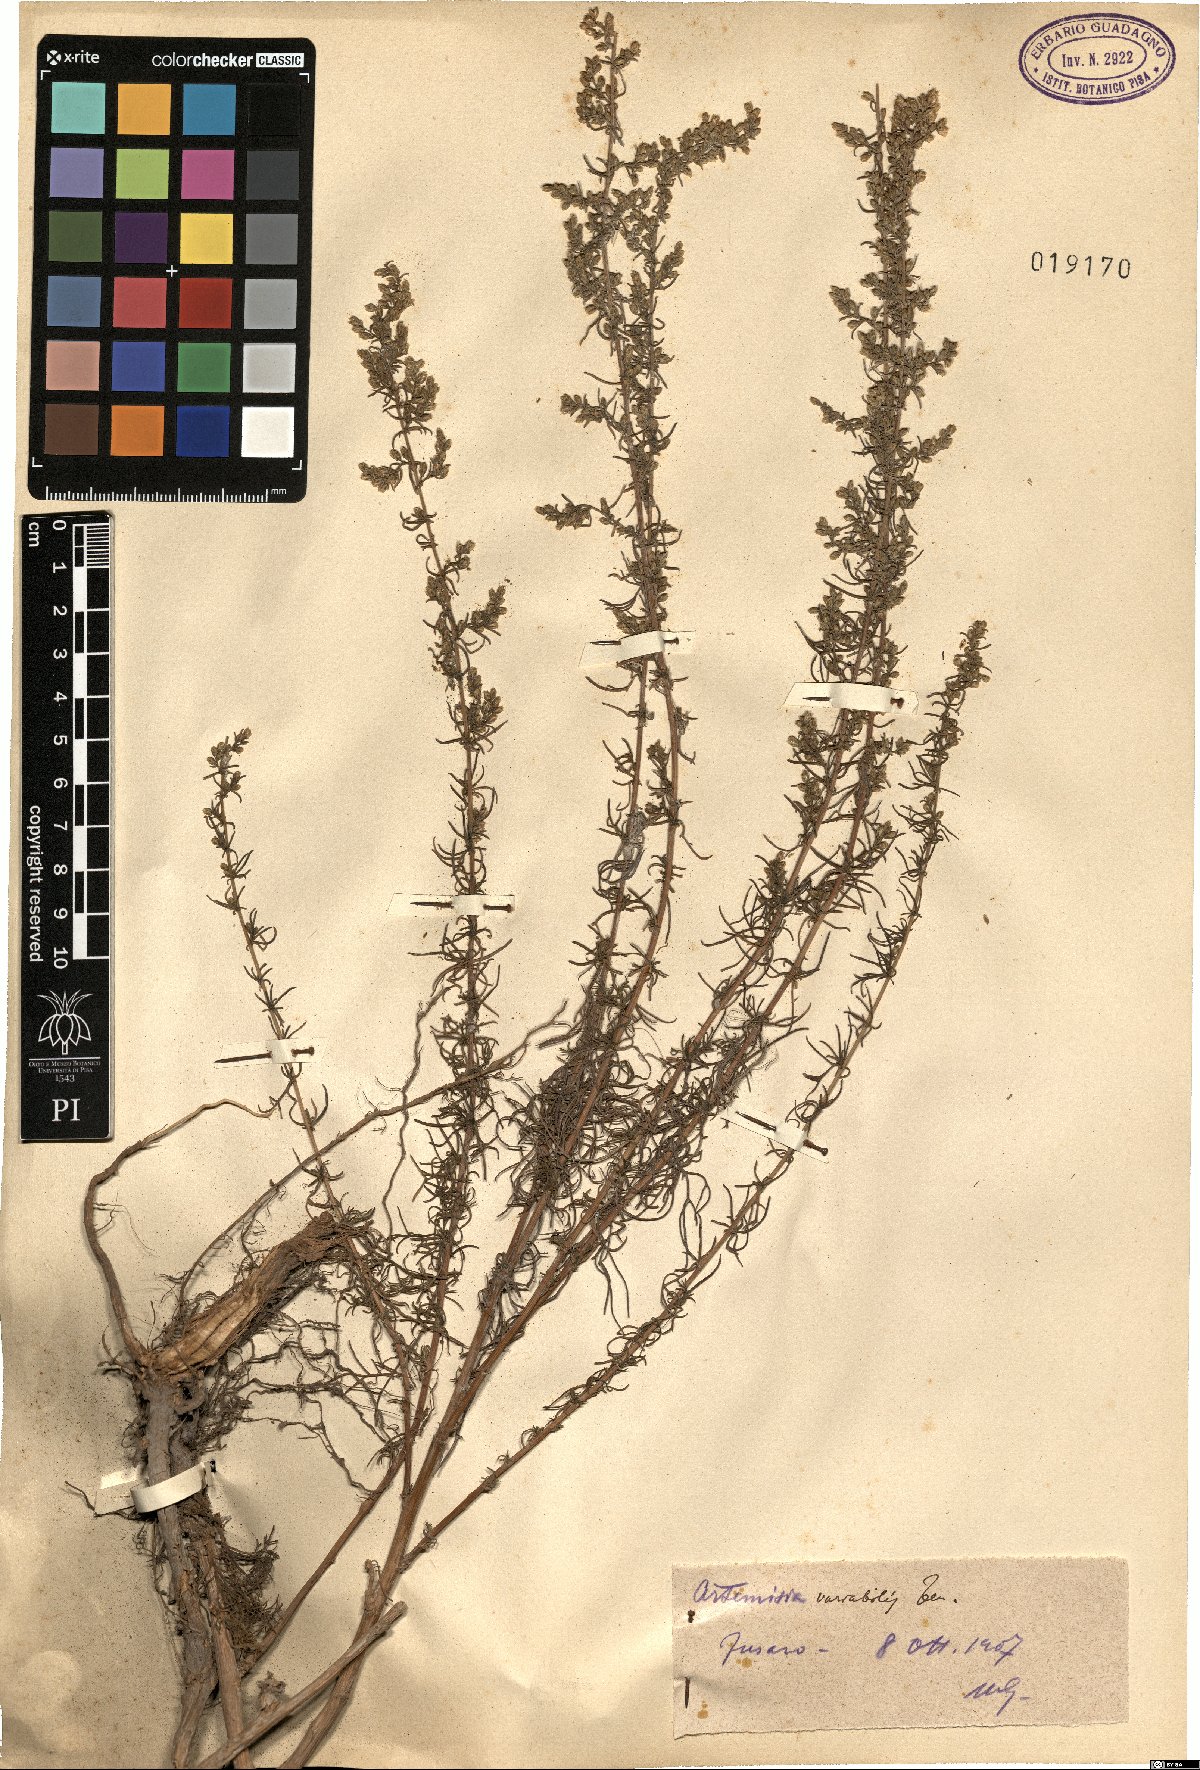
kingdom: Plantae
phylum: Tracheophyta
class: Magnoliopsida
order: Asterales
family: Asteraceae
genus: Artemisia
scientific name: Artemisia campestris
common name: Field wormwood
